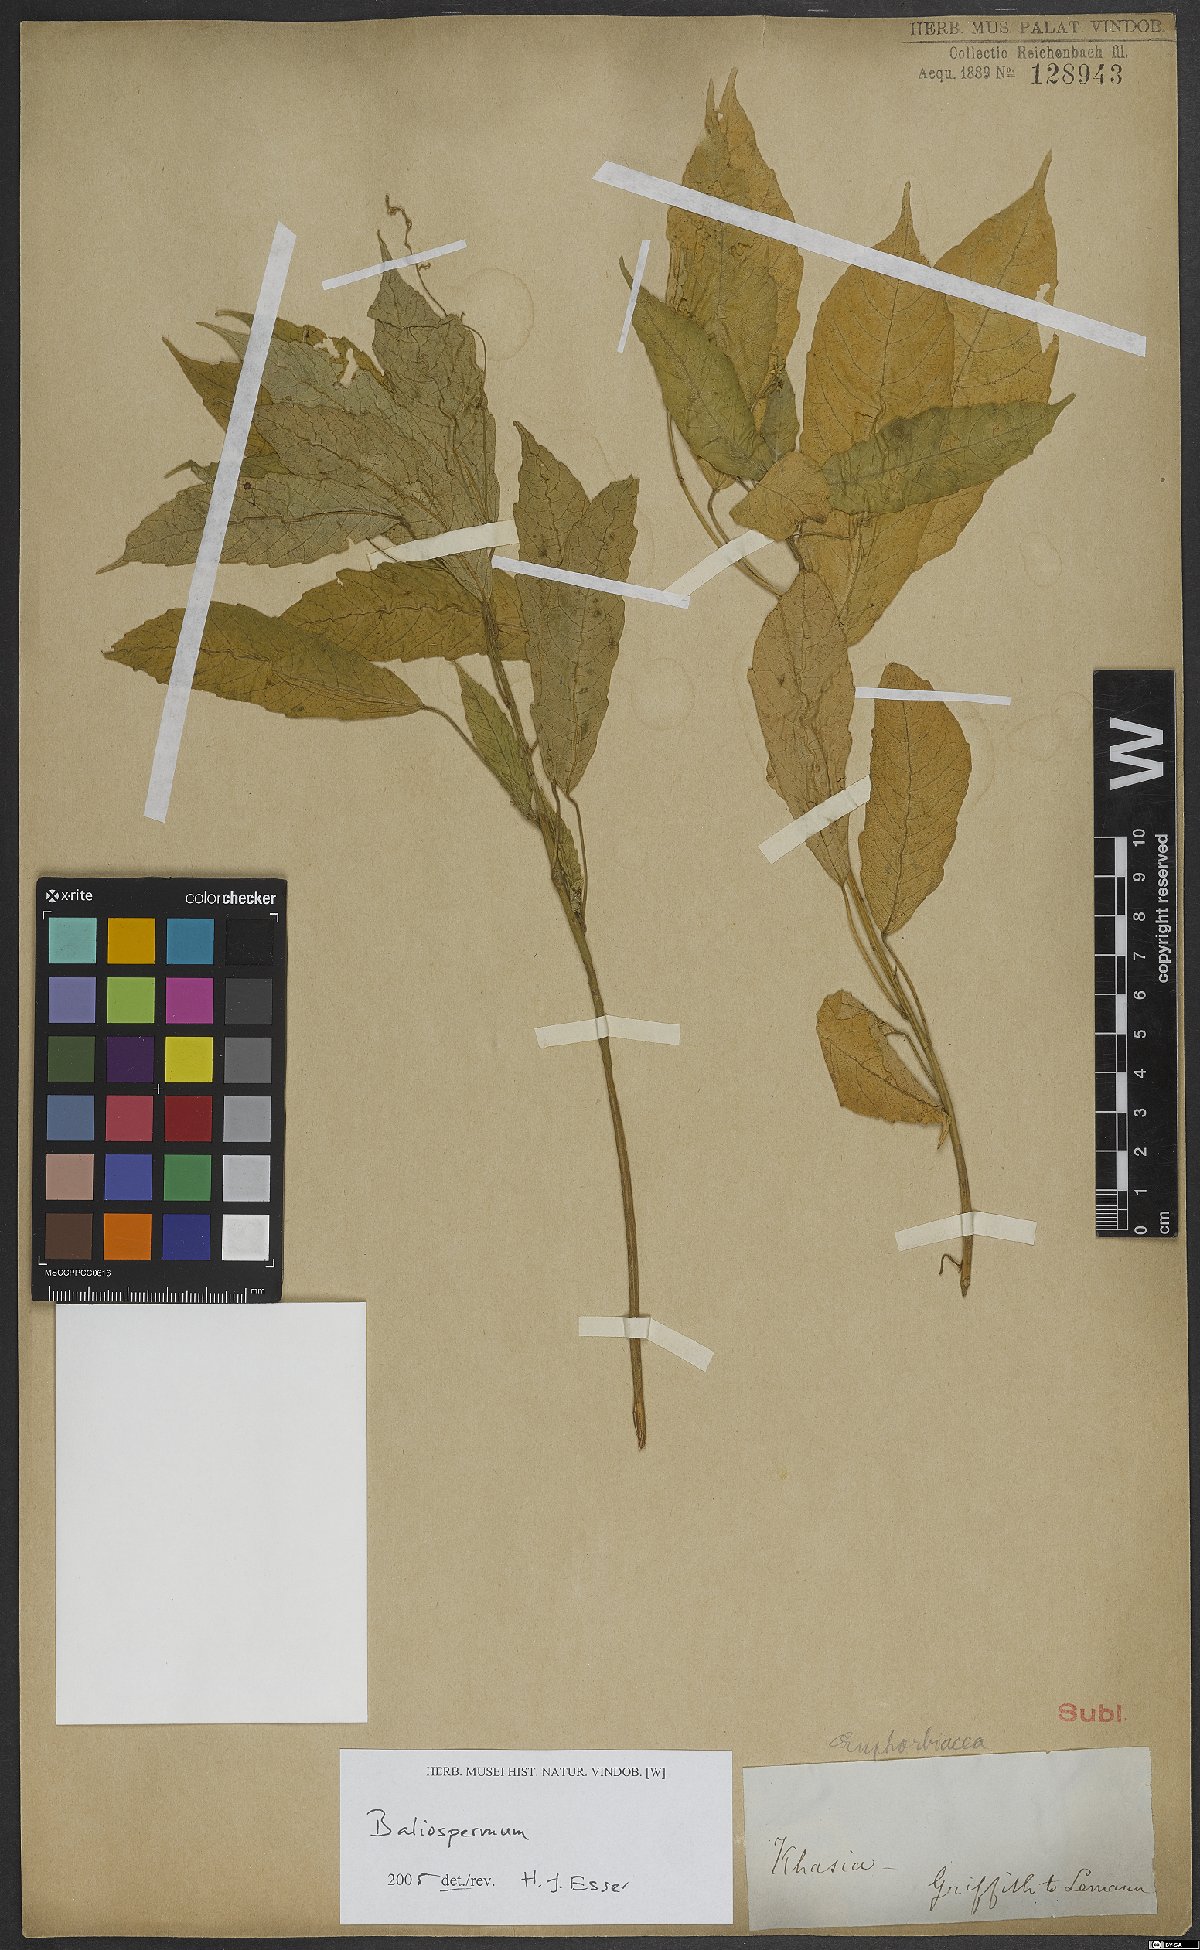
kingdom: Plantae
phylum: Tracheophyta
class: Magnoliopsida
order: Malpighiales
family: Euphorbiaceae
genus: Baliospermum
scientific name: Baliospermum calycinum
